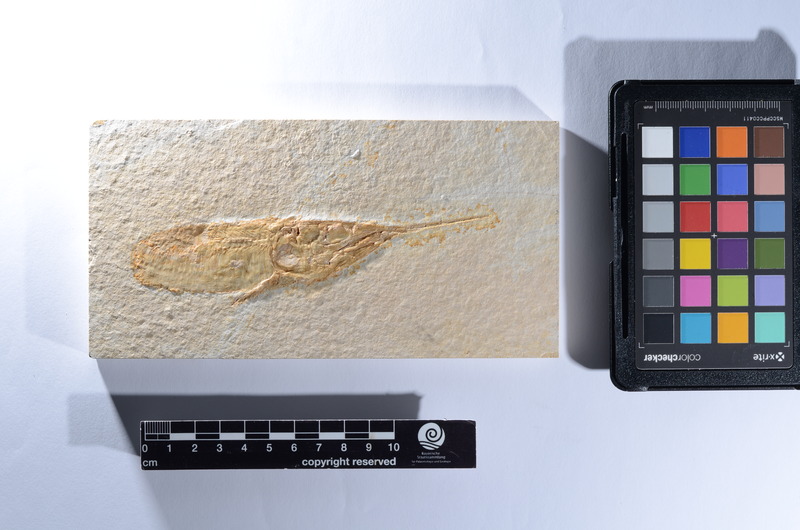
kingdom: Animalia
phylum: Chordata
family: Aspidorhynchidae
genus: Aspidorhynchus
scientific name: Aspidorhynchus
